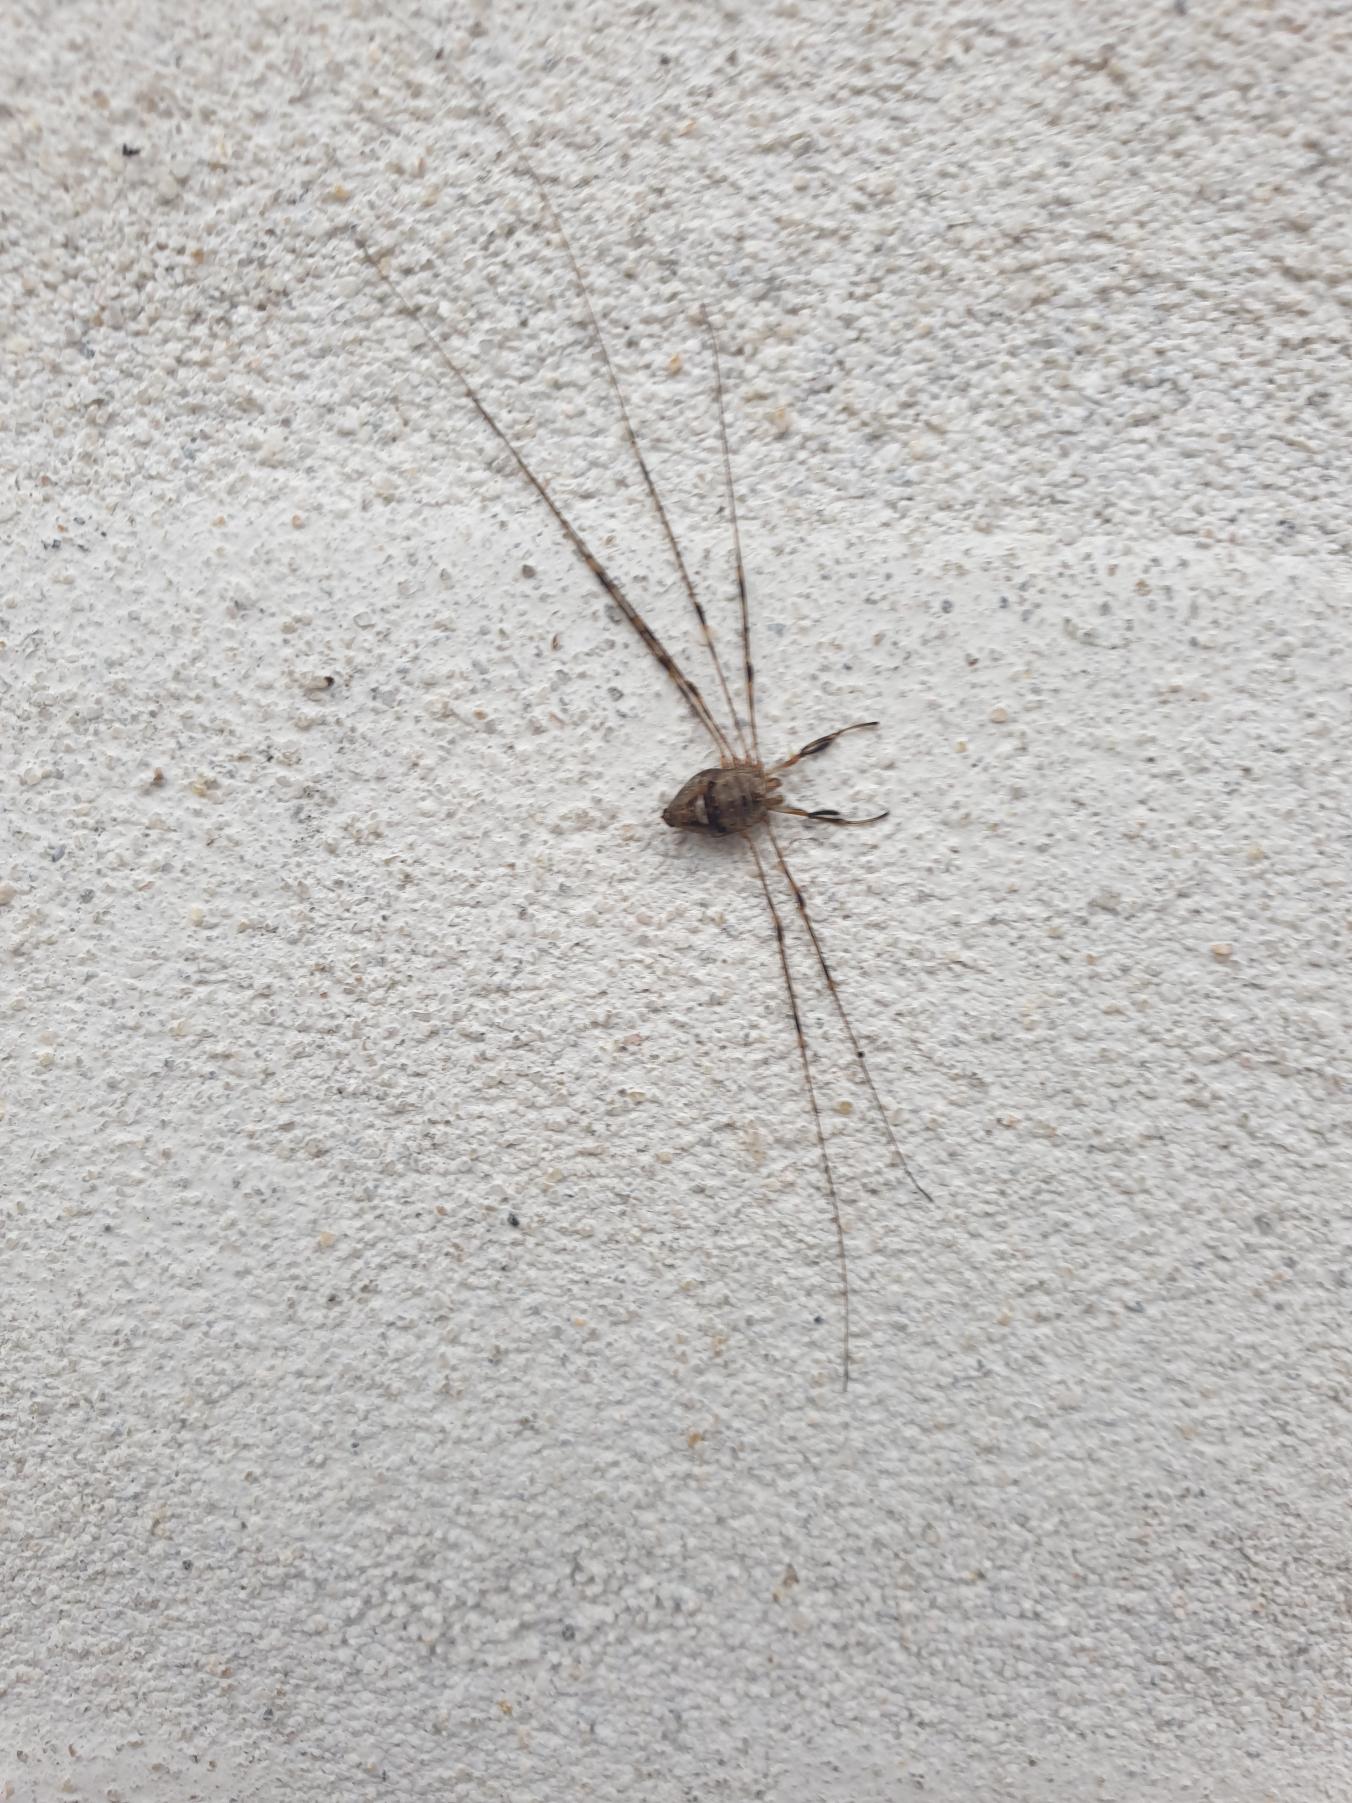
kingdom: Animalia
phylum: Arthropoda
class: Arachnida
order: Opiliones
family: Phalangiidae
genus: Dicranopalpus
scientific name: Dicranopalpus ramosus
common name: Gaffelmejer
